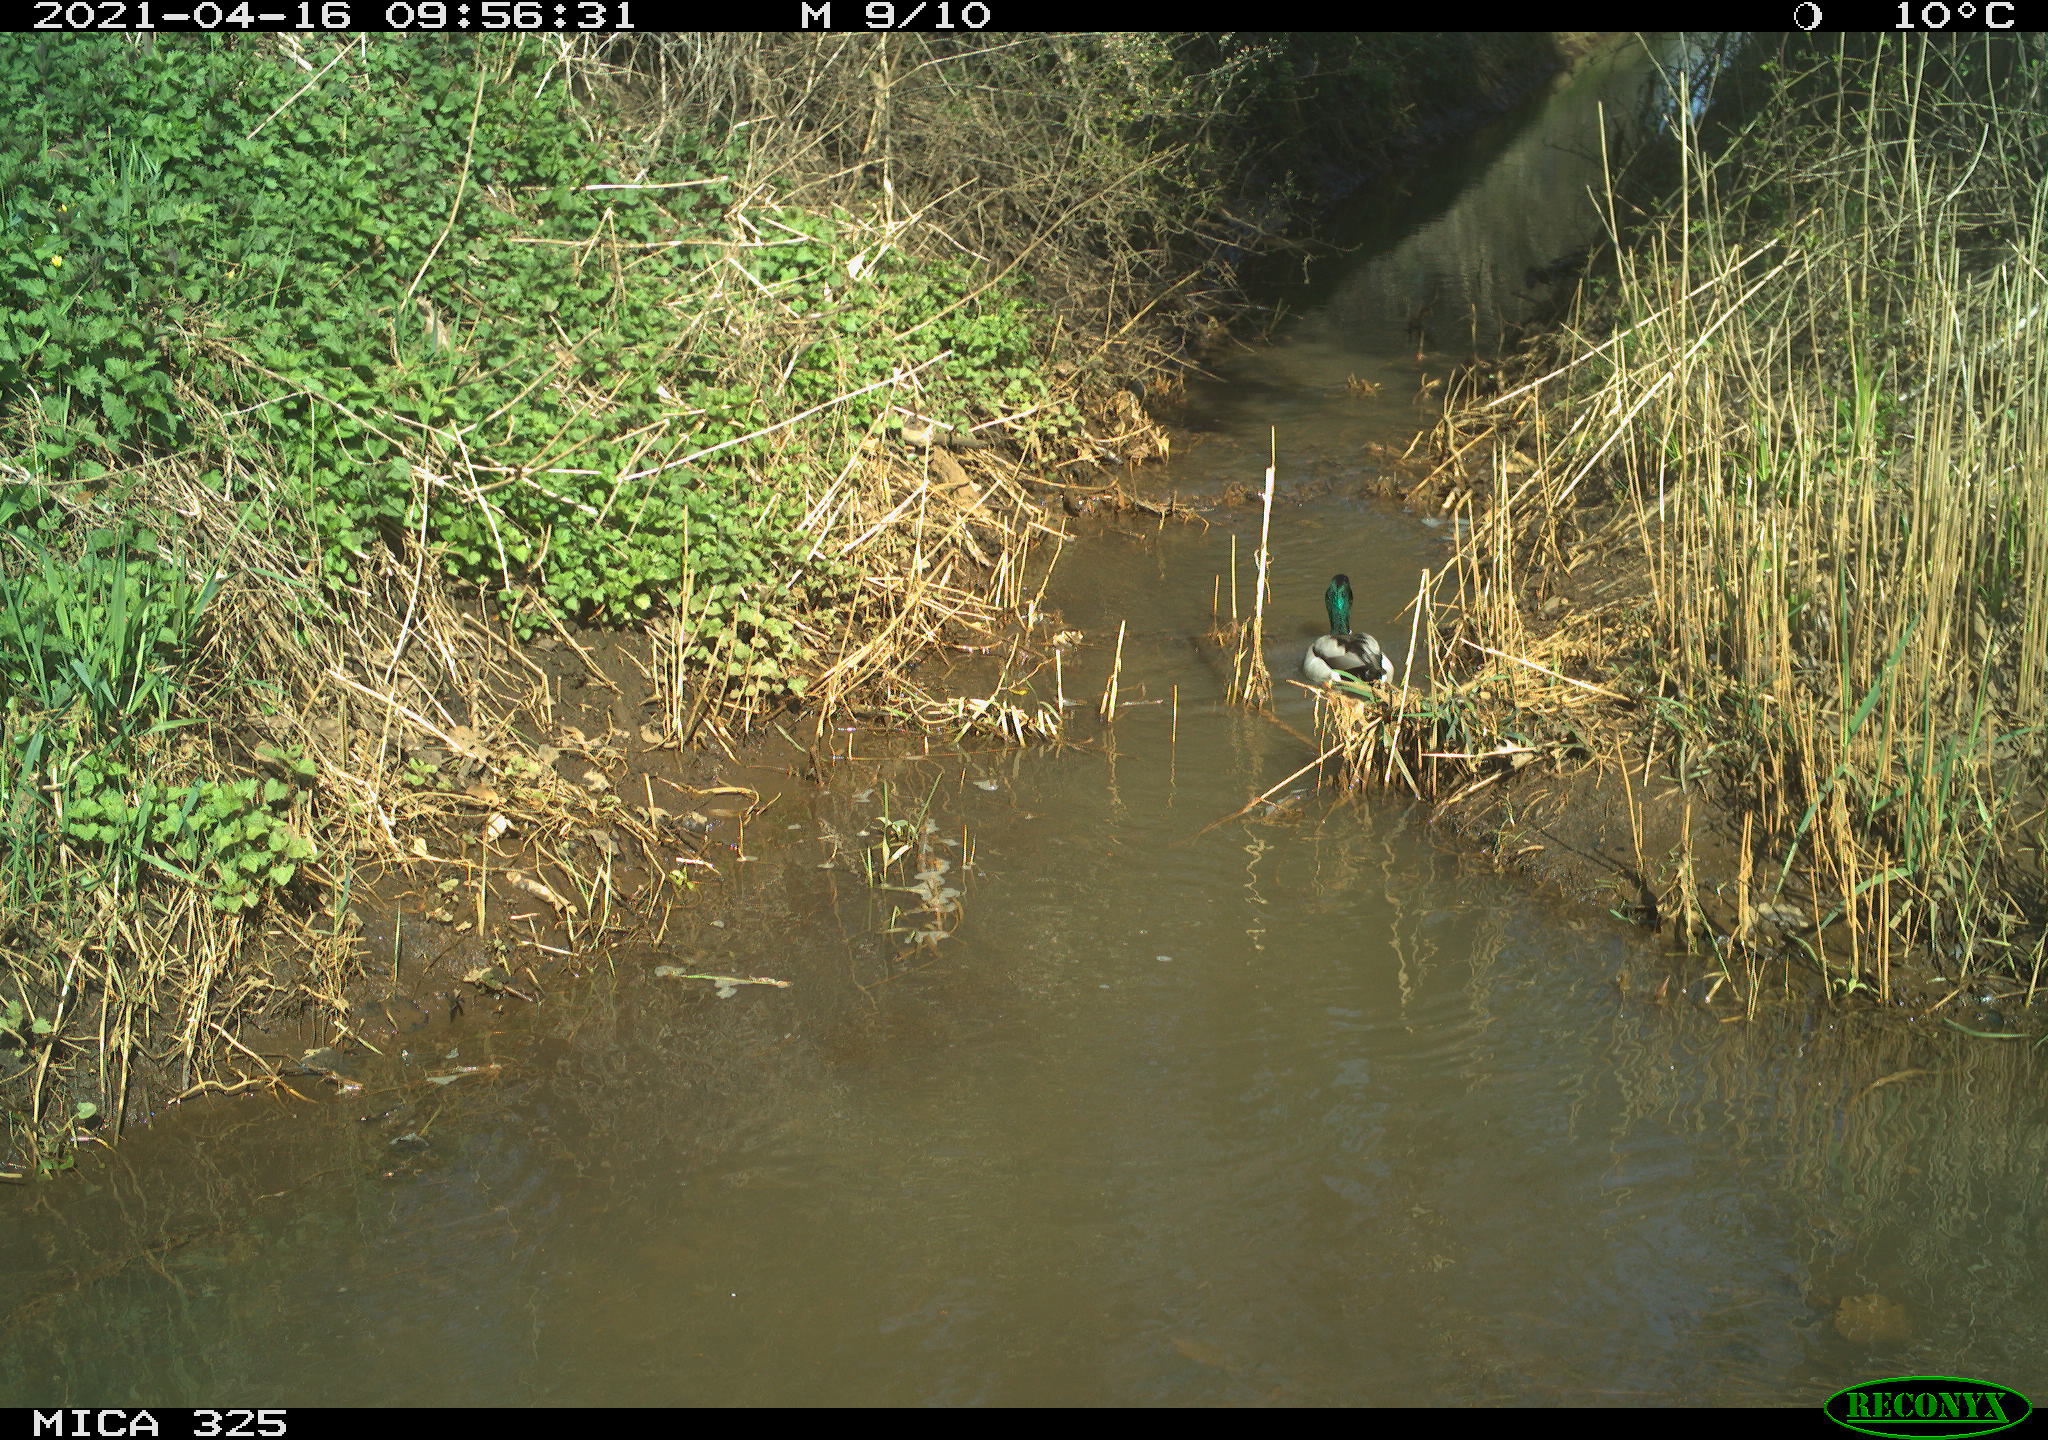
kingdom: Animalia
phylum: Chordata
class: Aves
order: Anseriformes
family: Anatidae
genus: Anas
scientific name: Anas platyrhynchos
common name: Mallard
